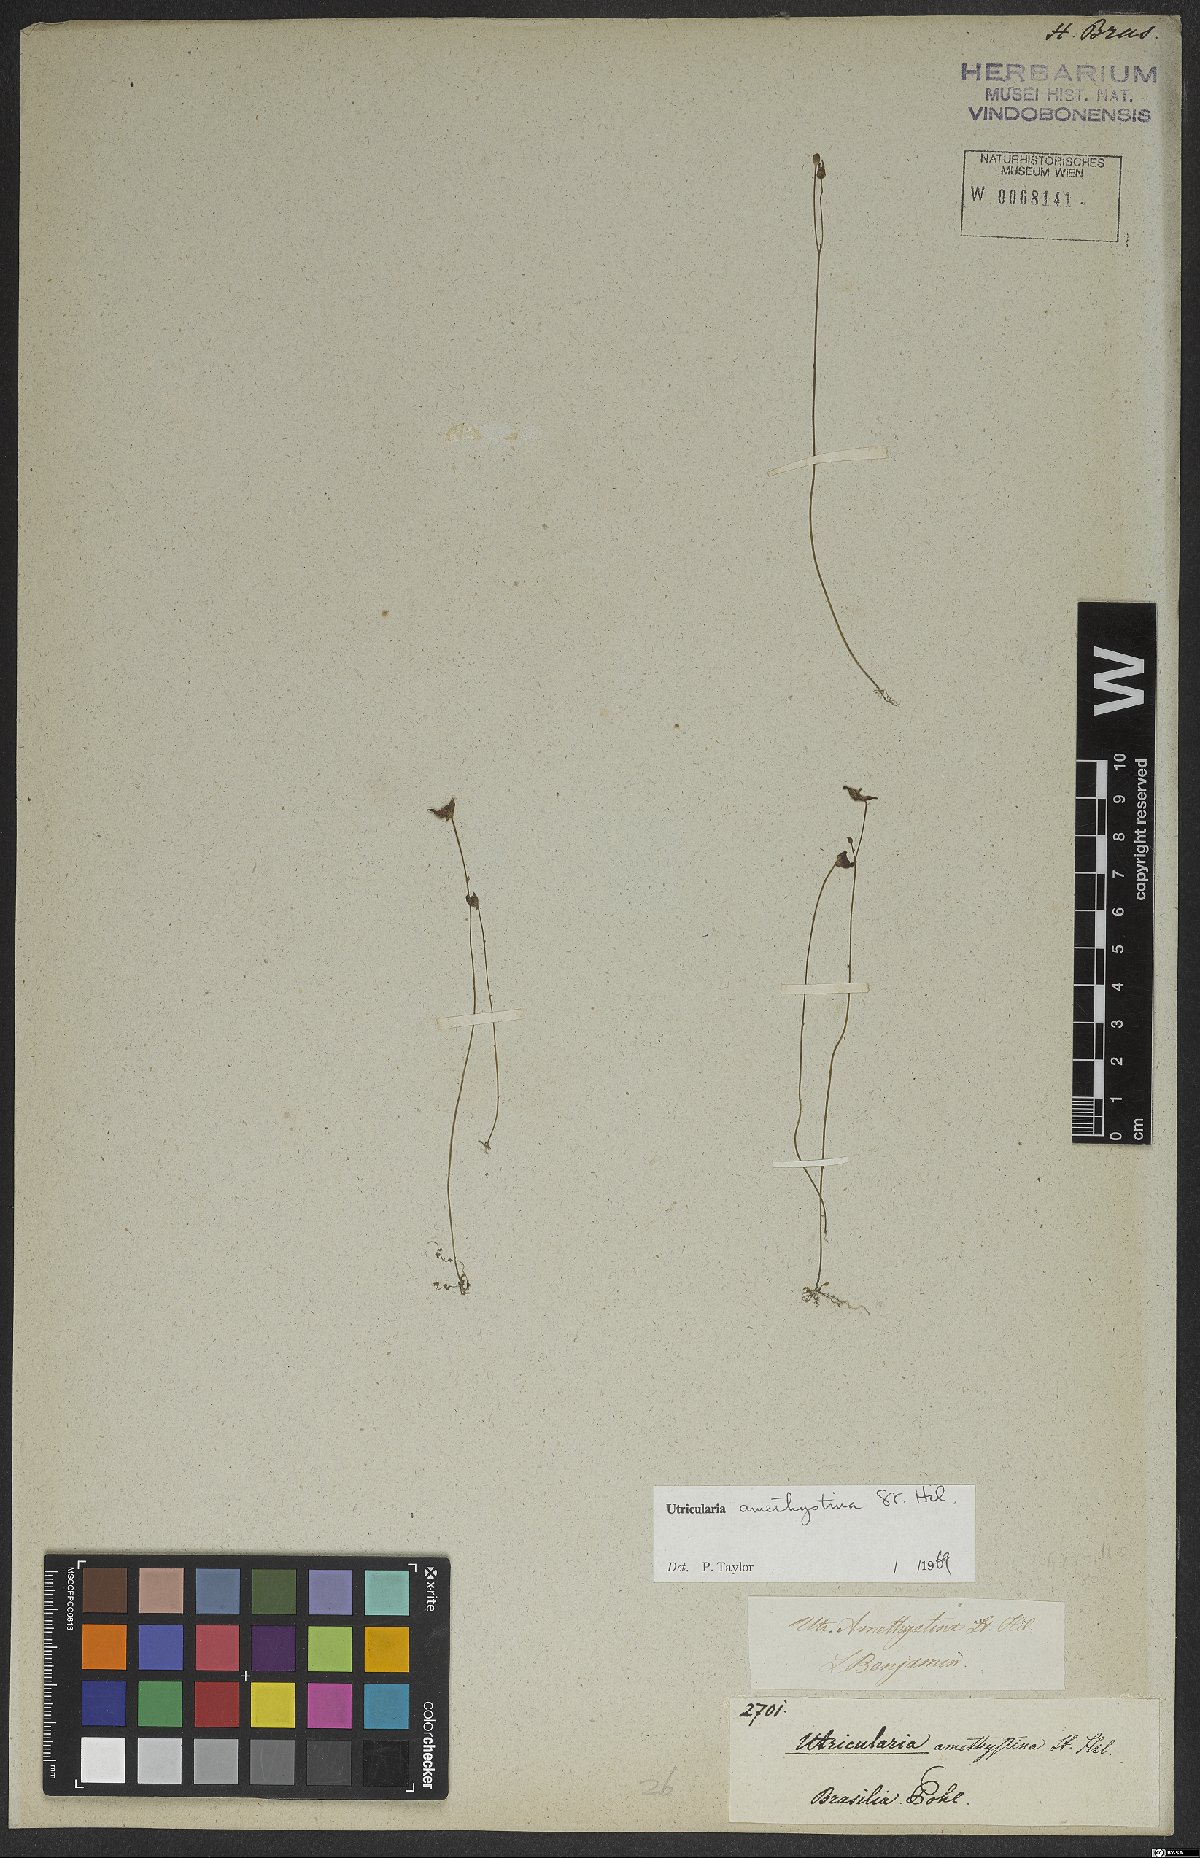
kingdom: Plantae
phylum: Tracheophyta
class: Magnoliopsida
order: Lamiales
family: Lentibulariaceae
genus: Utricularia
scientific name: Utricularia amethystina
